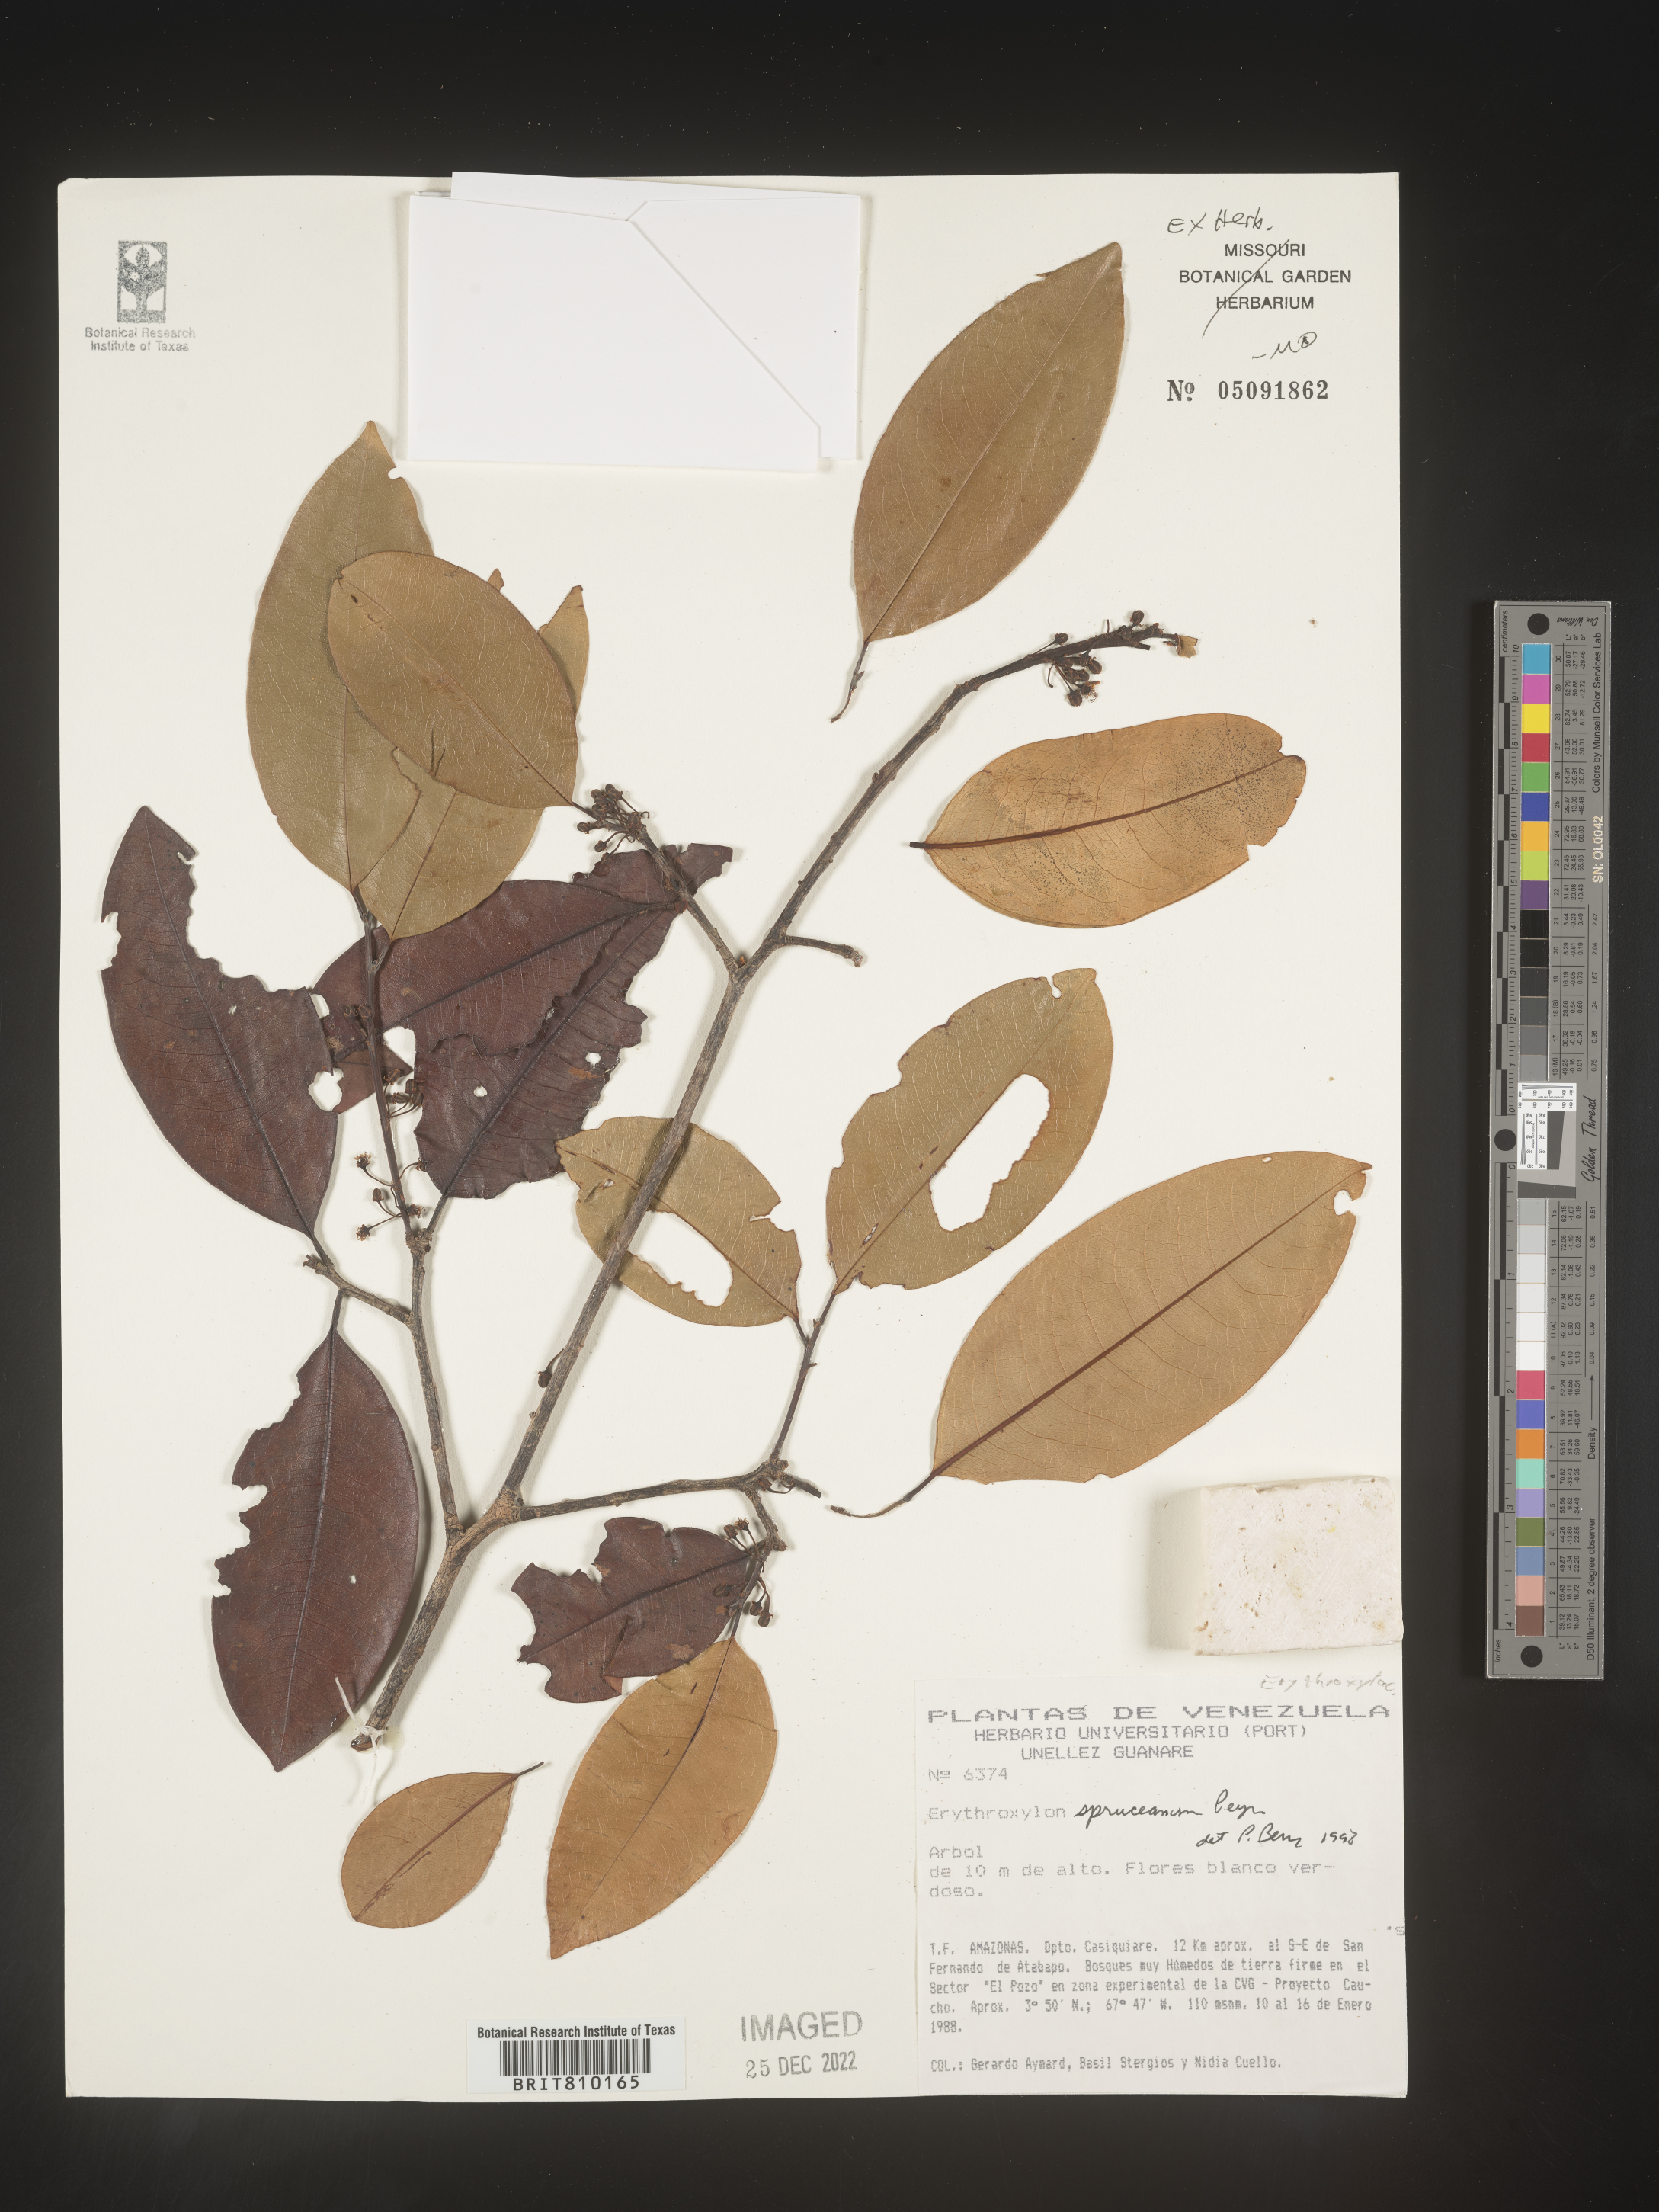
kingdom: Plantae
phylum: Tracheophyta
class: Magnoliopsida
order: Malpighiales
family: Erythroxylaceae
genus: Erythroxylum
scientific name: Erythroxylum
